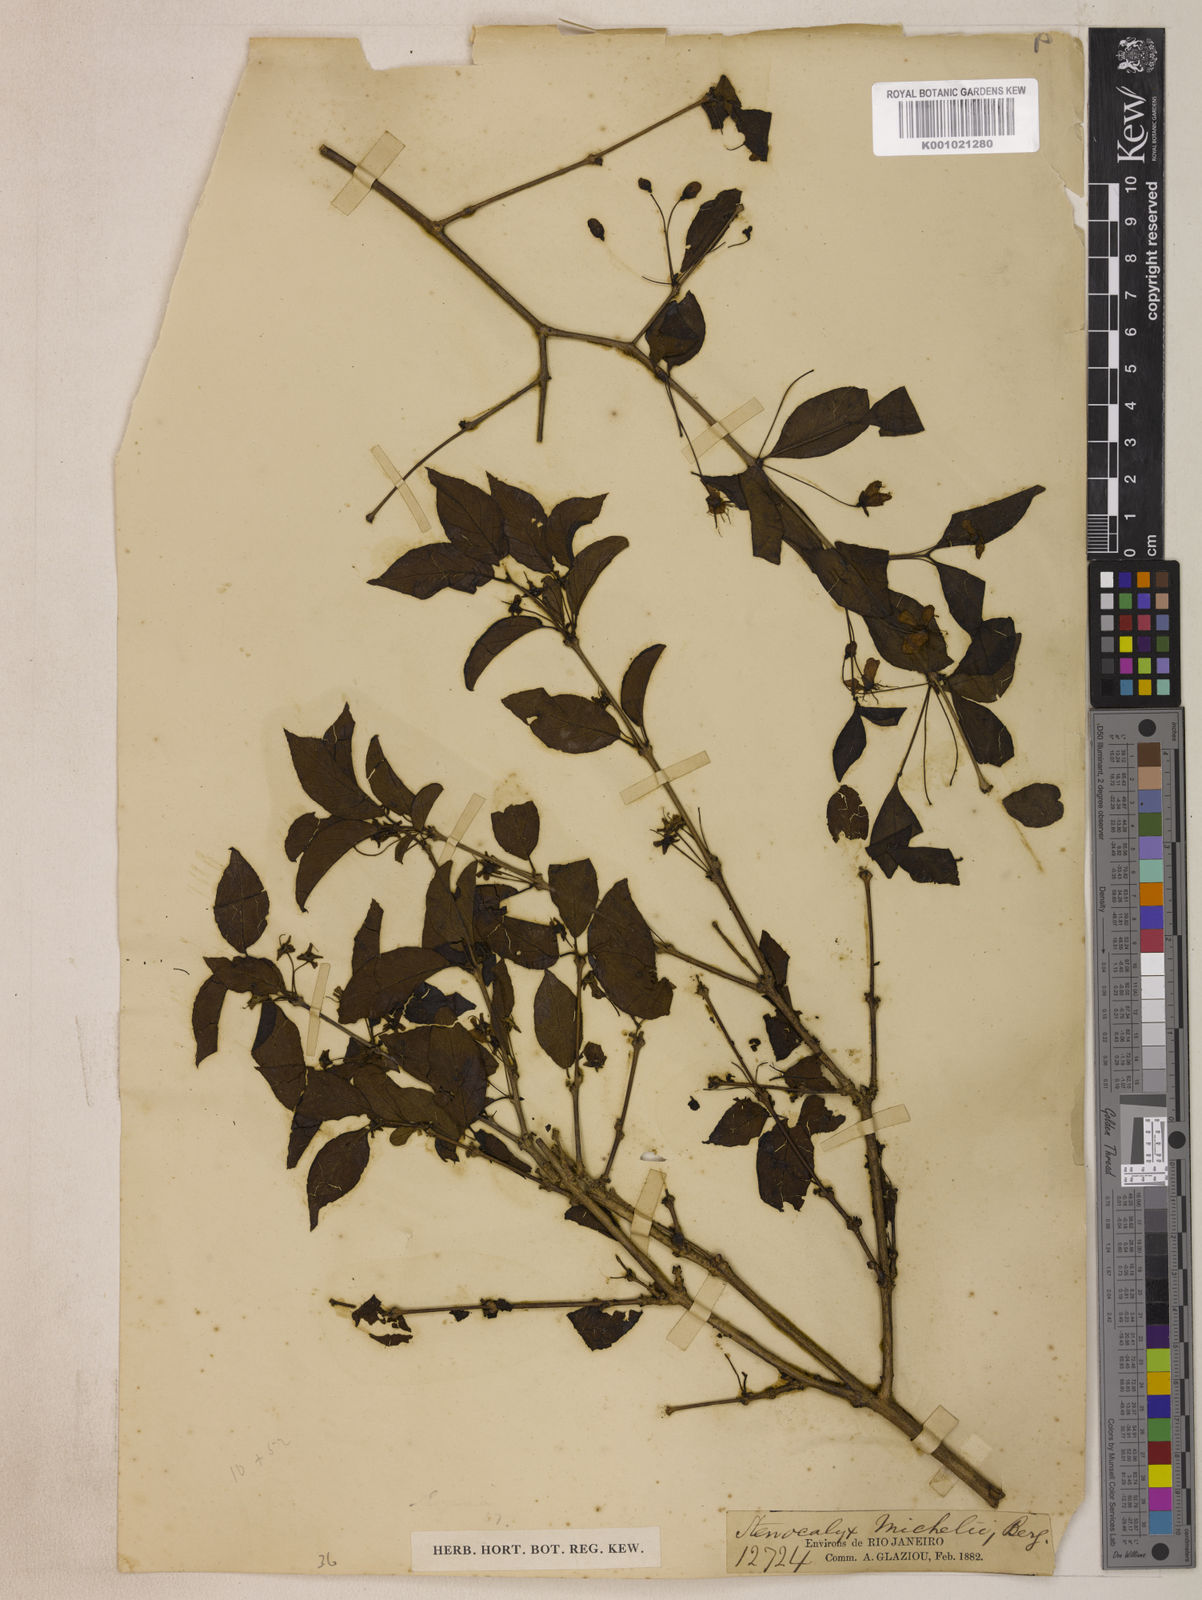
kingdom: Plantae
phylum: Tracheophyta
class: Magnoliopsida
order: Myrtales
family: Myrtaceae
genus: Eugenia
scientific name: Eugenia uniflora
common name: Surinam cherry
